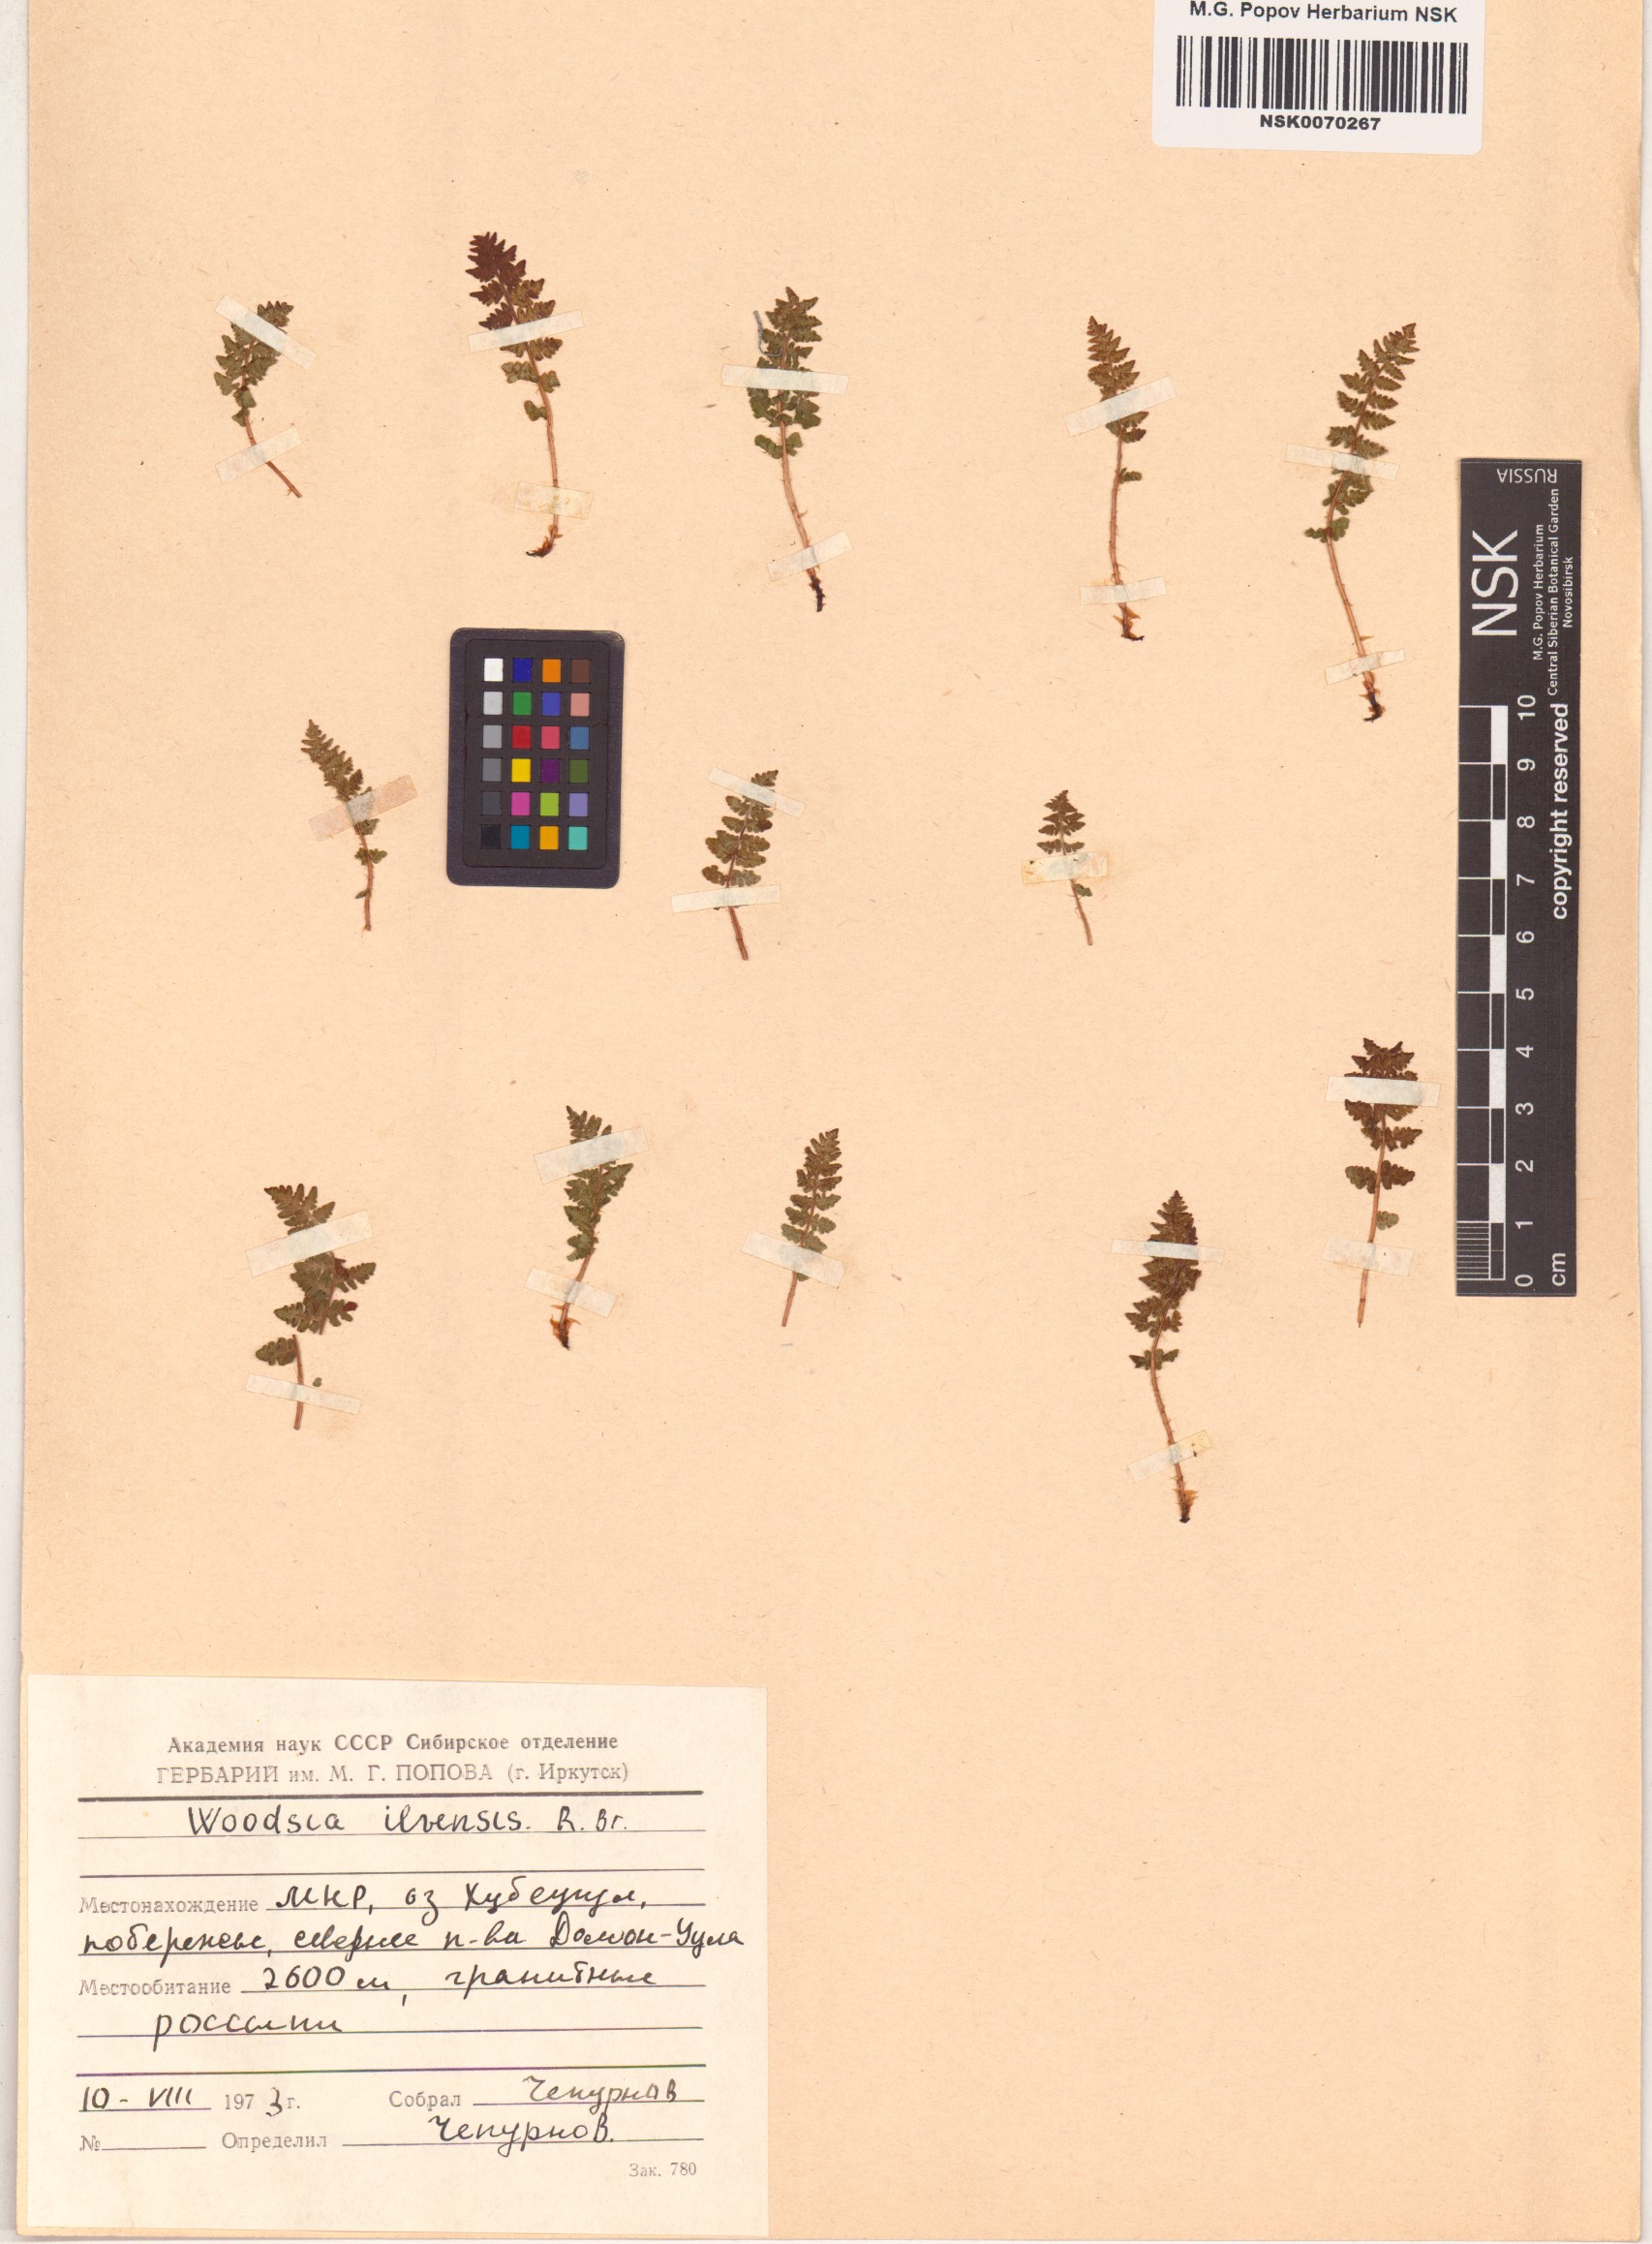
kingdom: Plantae
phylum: Tracheophyta
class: Polypodiopsida
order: Polypodiales
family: Woodsiaceae
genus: Woodsia
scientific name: Woodsia ilvensis
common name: Fragrant woodsia
